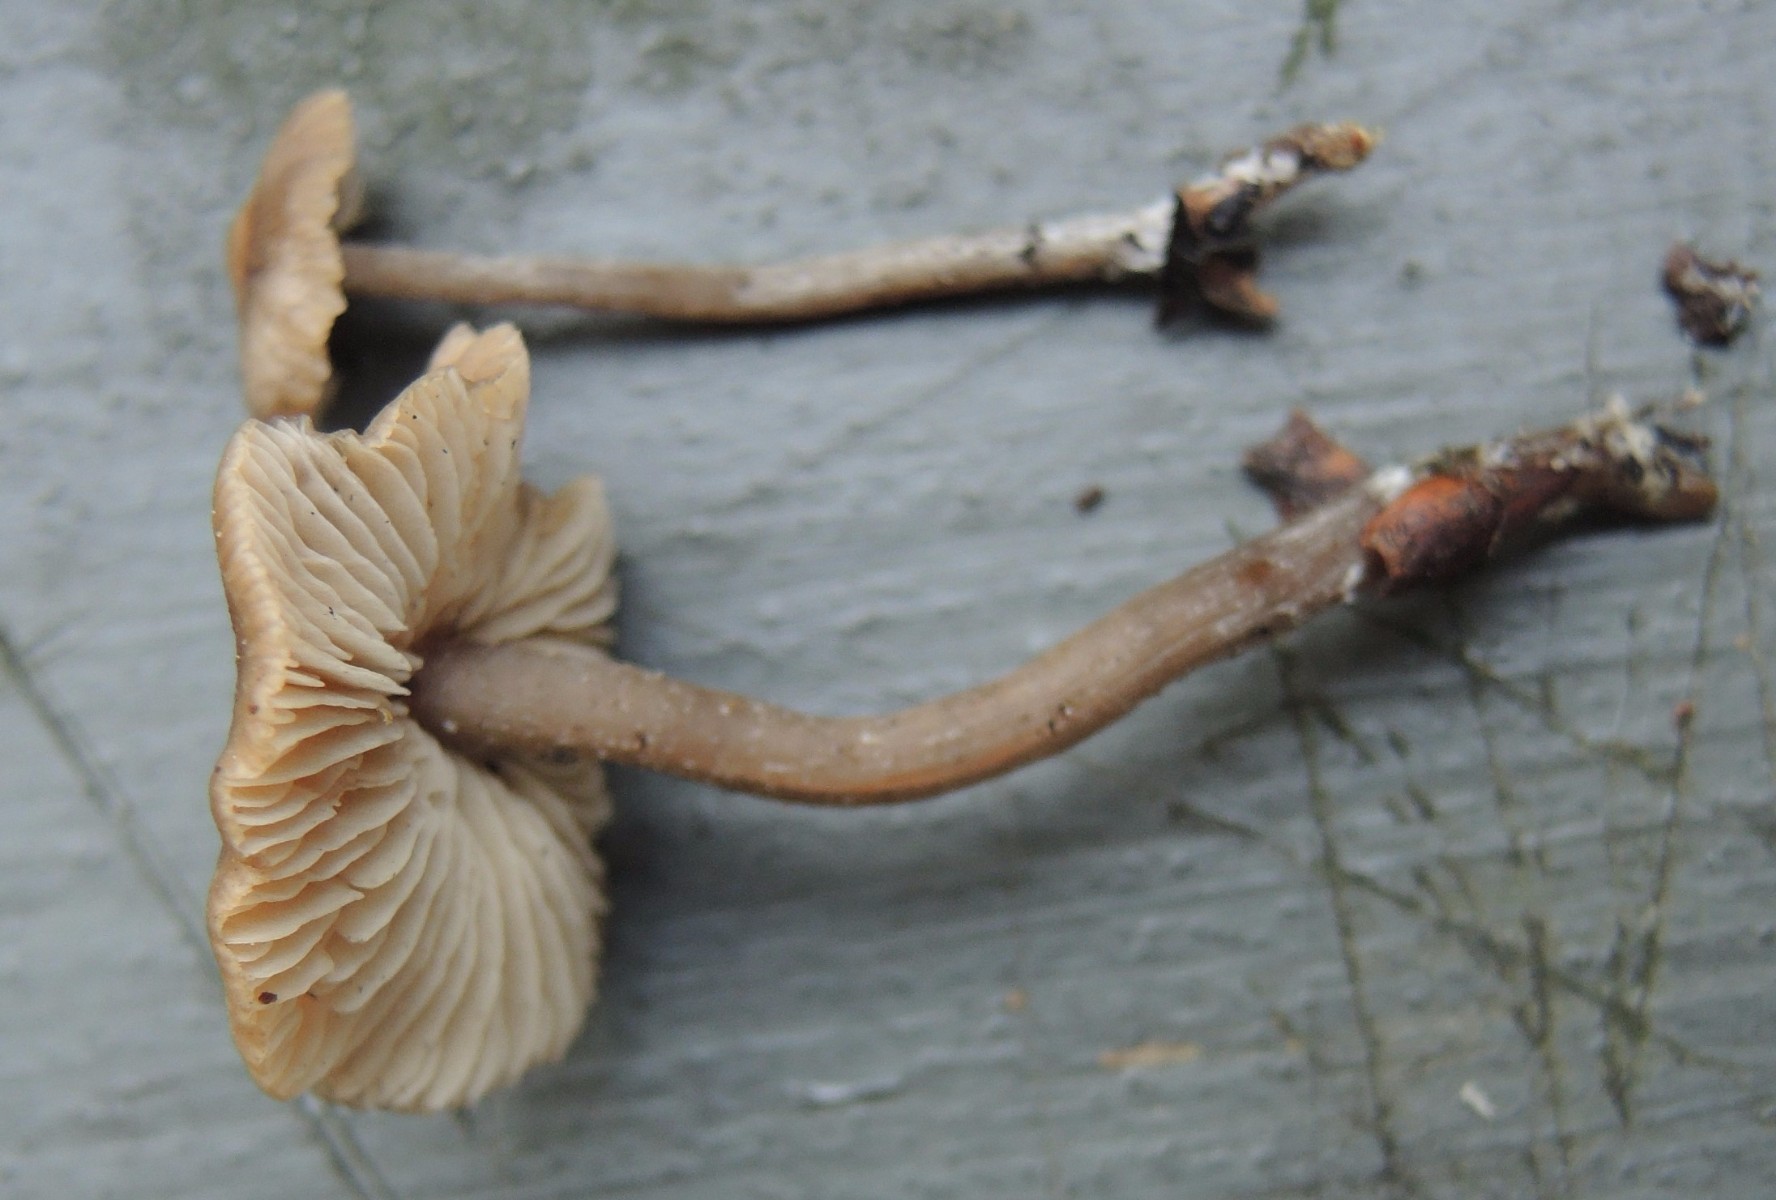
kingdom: Fungi
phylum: Basidiomycota
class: Agaricomycetes
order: Agaricales
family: Lyophyllaceae
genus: Myochromella
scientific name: Myochromella boudieri
